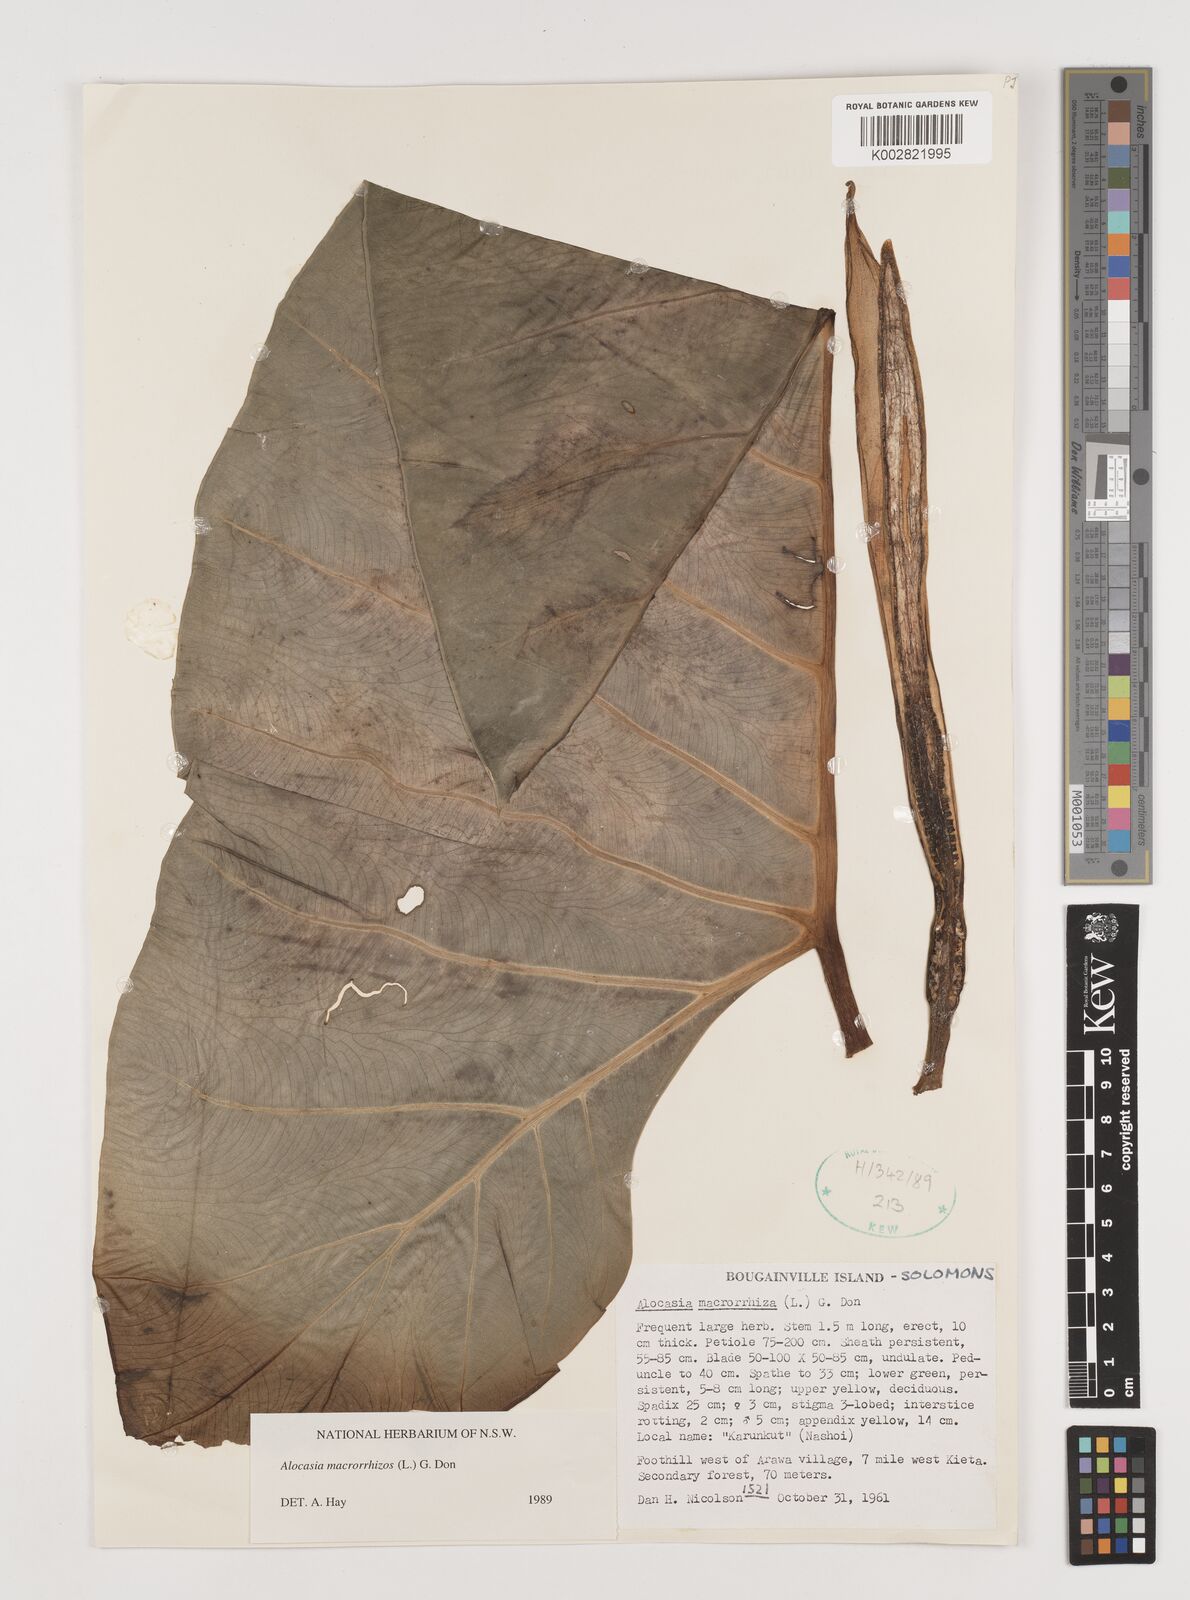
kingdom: Plantae
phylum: Tracheophyta
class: Liliopsida
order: Alismatales
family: Araceae
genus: Alocasia
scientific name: Alocasia macrorrhizos
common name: Giant taro
